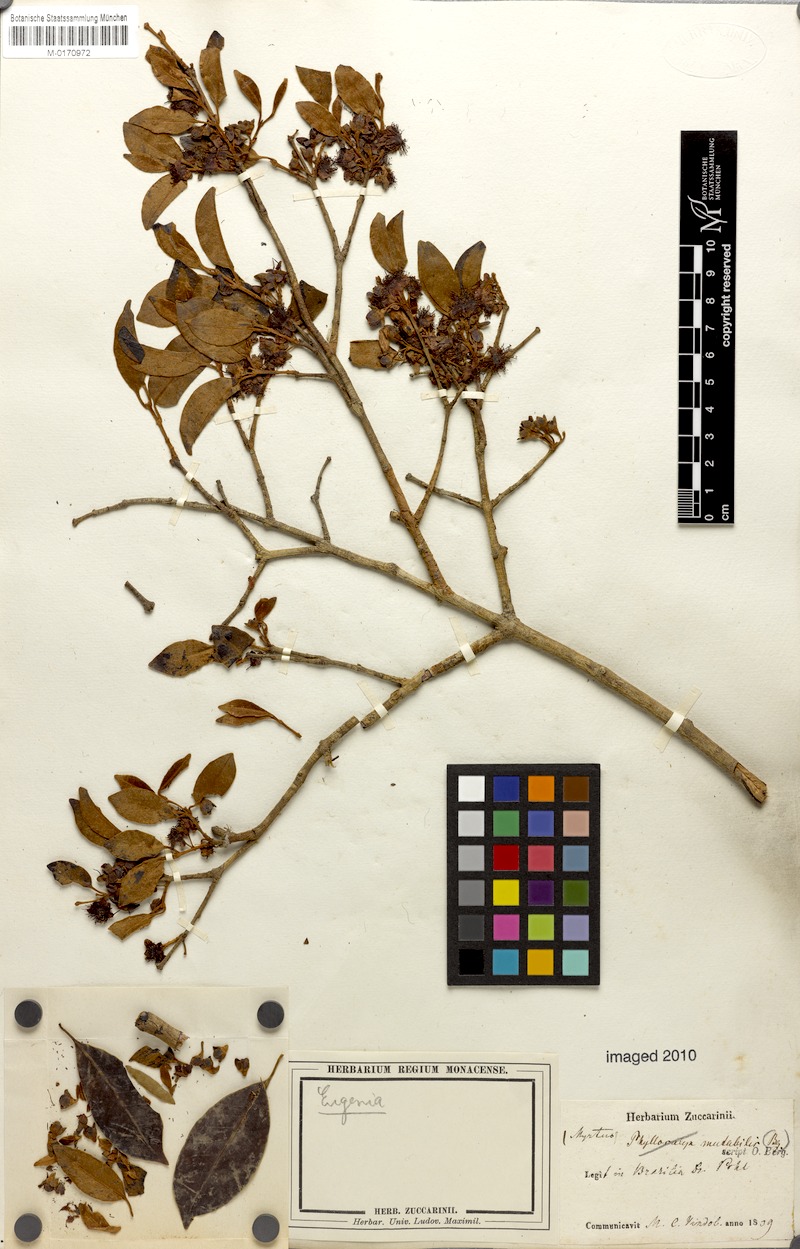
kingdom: Plantae
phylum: Tracheophyta
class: Magnoliopsida
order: Myrtales
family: Myrtaceae
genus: Eugenia
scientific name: Eugenia longipetiolata
